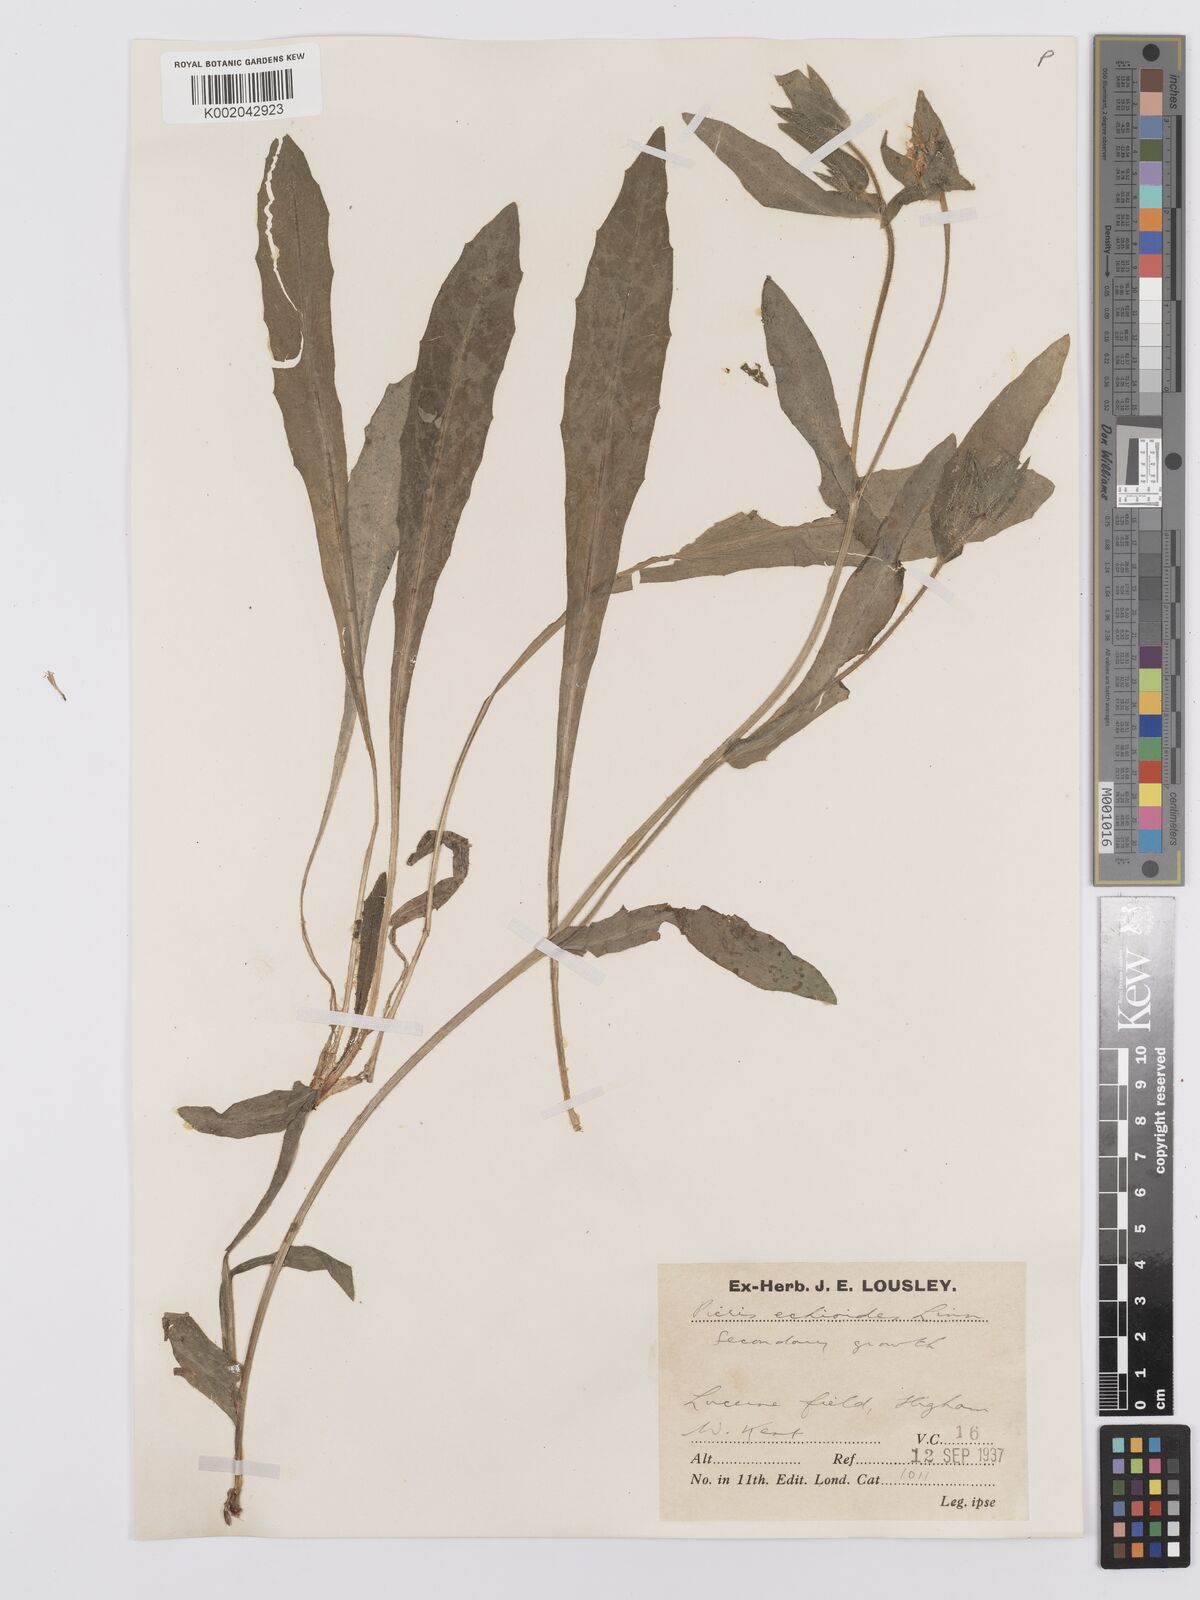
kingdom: Plantae
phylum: Tracheophyta
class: Magnoliopsida
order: Asterales
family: Asteraceae
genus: Helminthotheca
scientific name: Helminthotheca echioides
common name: Ox-tongue
